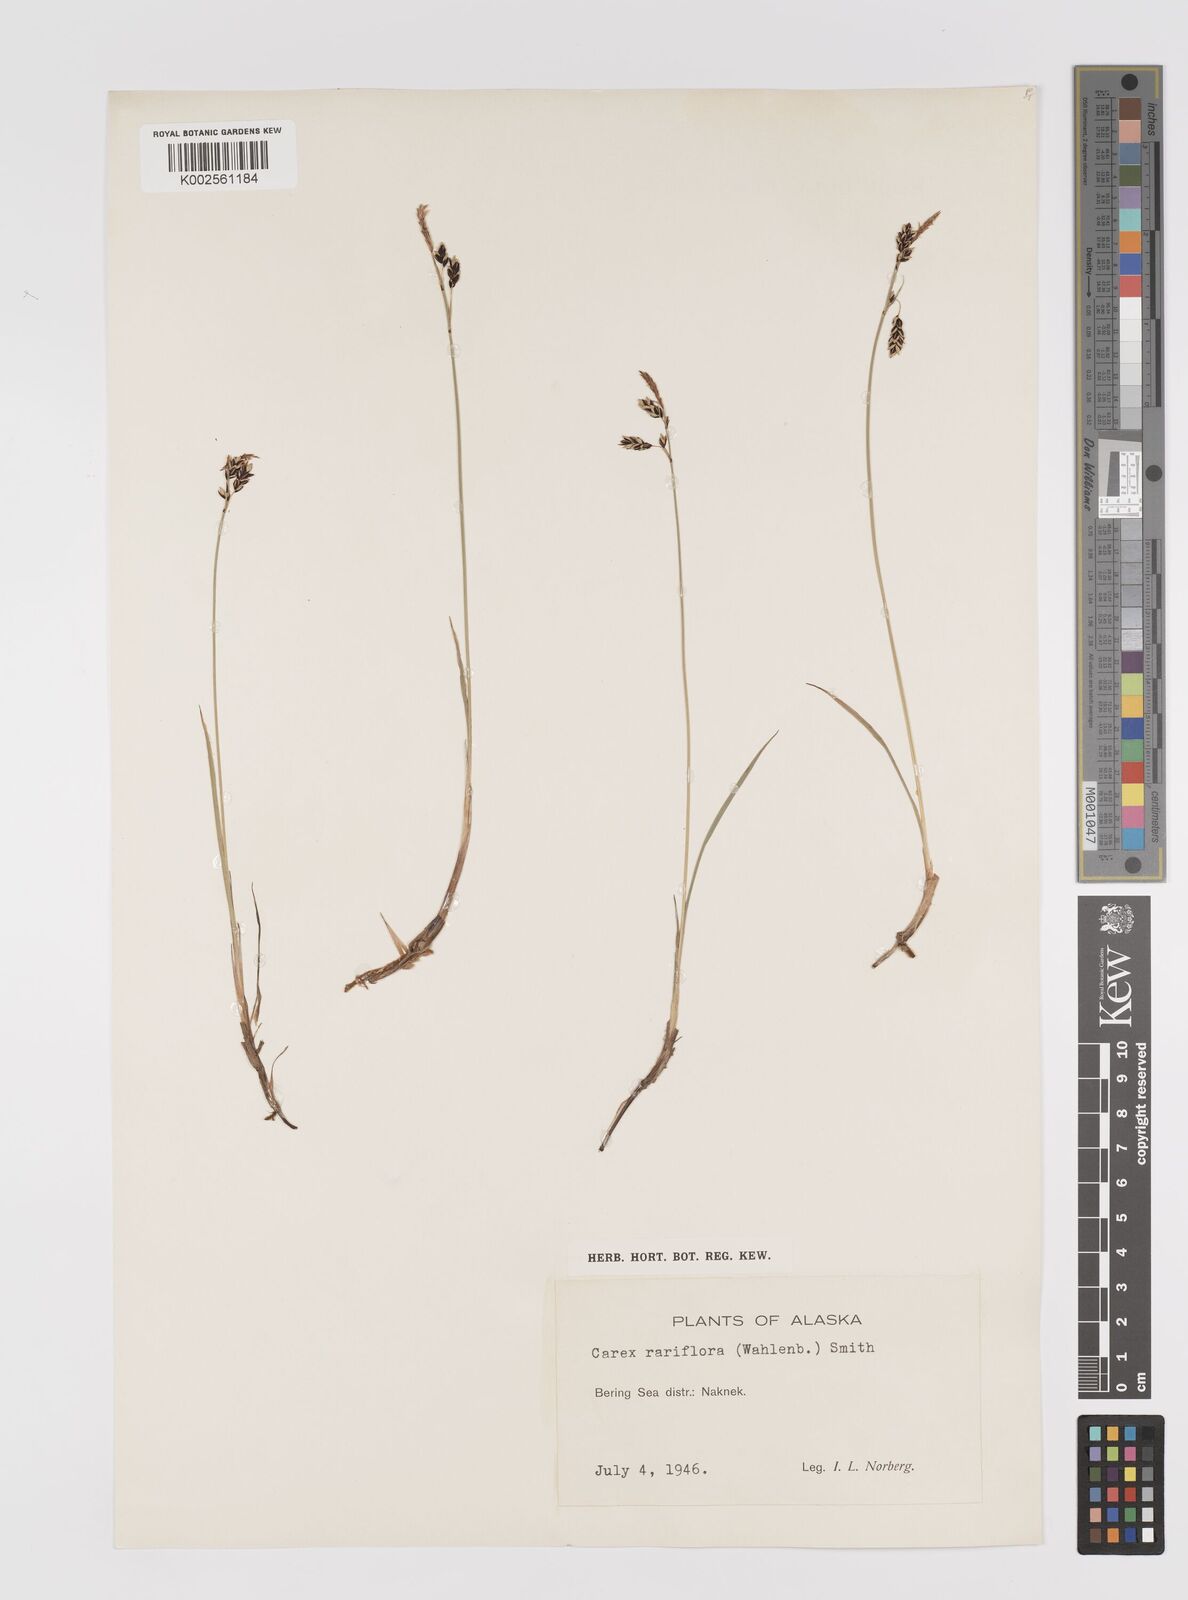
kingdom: Plantae
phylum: Tracheophyta
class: Liliopsida
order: Poales
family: Cyperaceae
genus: Carex
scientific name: Carex rariflora
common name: Loose-flowered alpine sedge
